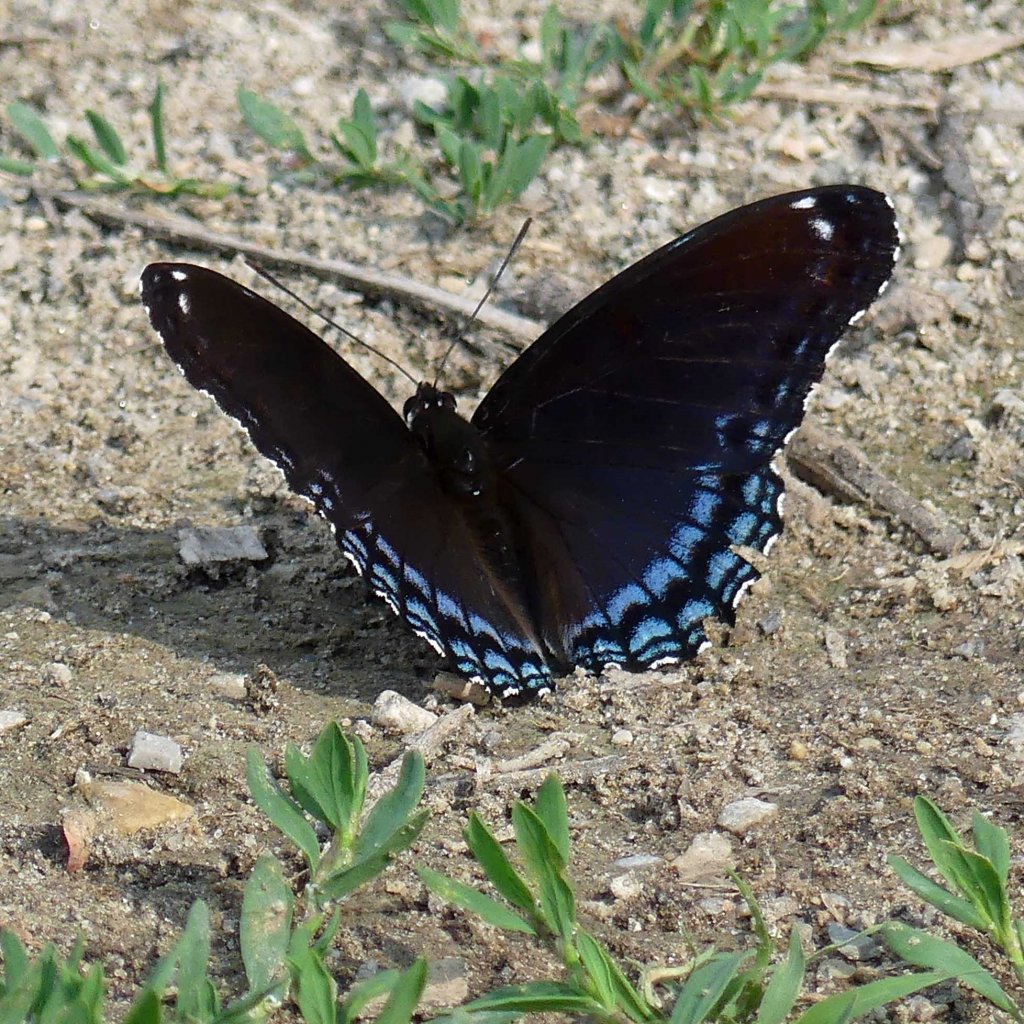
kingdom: Animalia
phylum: Arthropoda
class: Insecta
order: Lepidoptera
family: Nymphalidae
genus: Limenitis
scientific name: Limenitis astyanax
